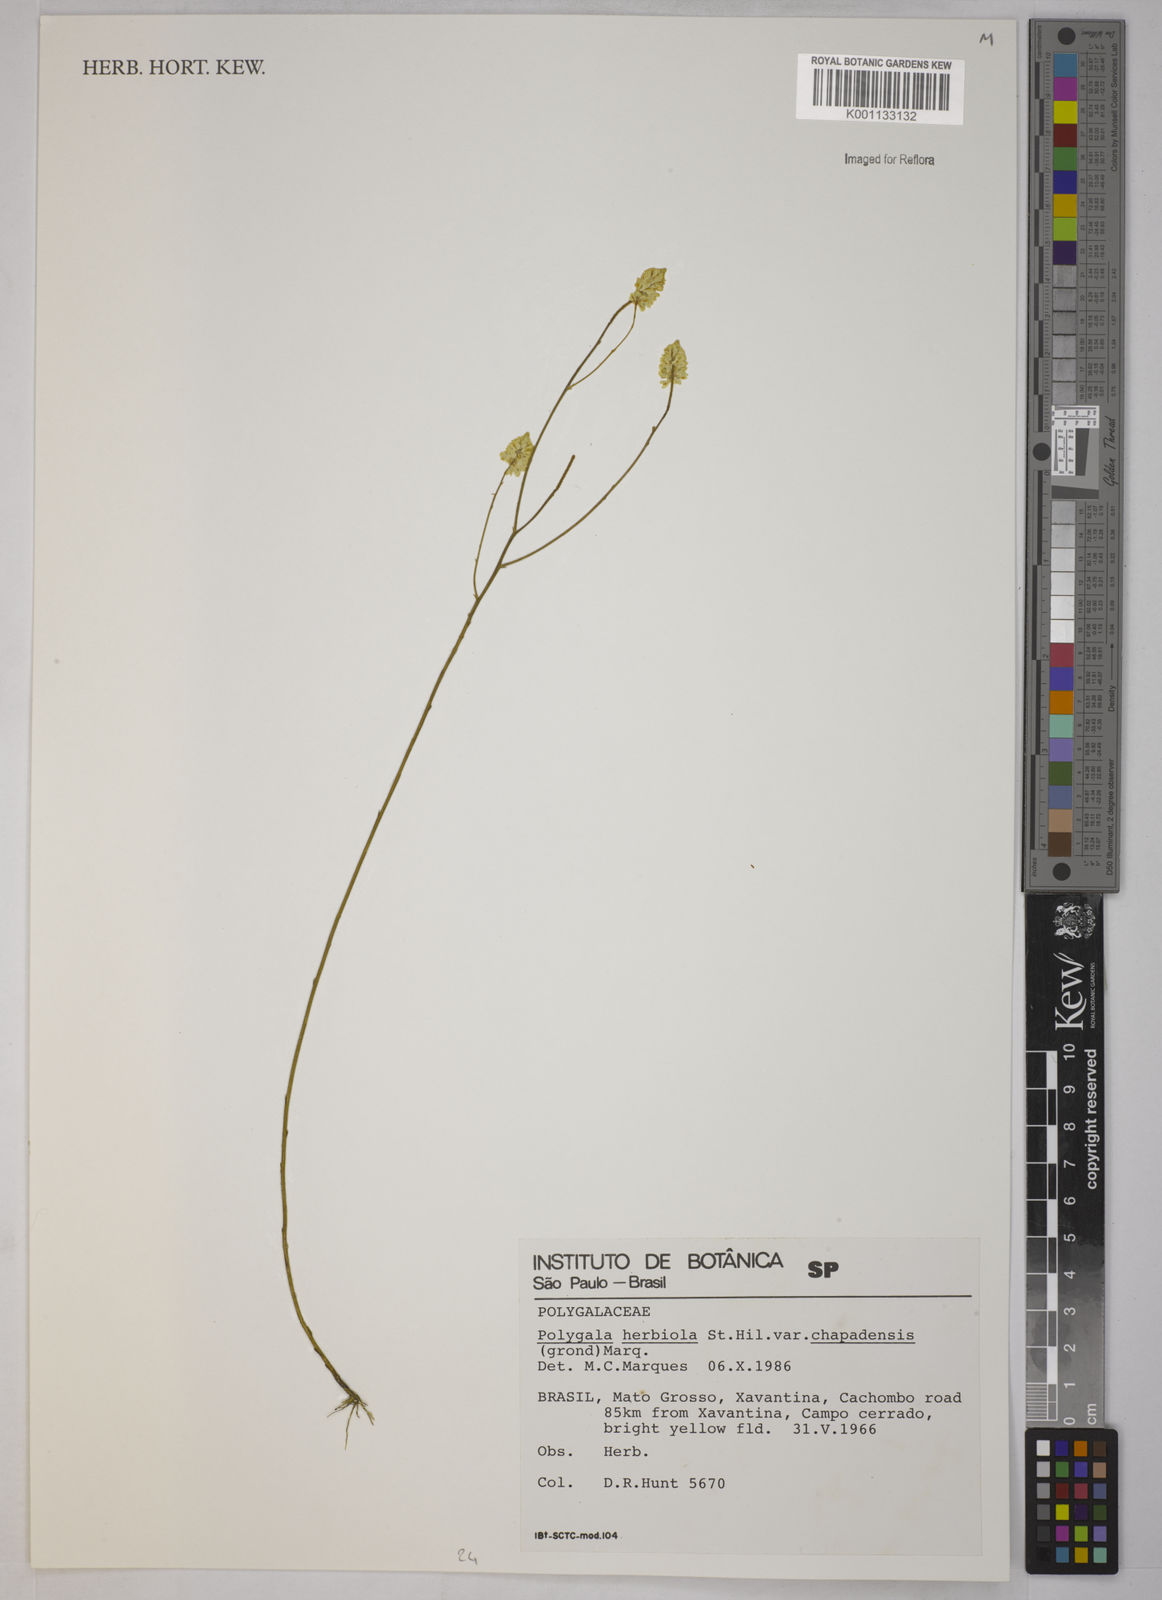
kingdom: Plantae
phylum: Tracheophyta
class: Magnoliopsida
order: Fabales
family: Polygalaceae
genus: Polygala
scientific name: Polygala herbiola
